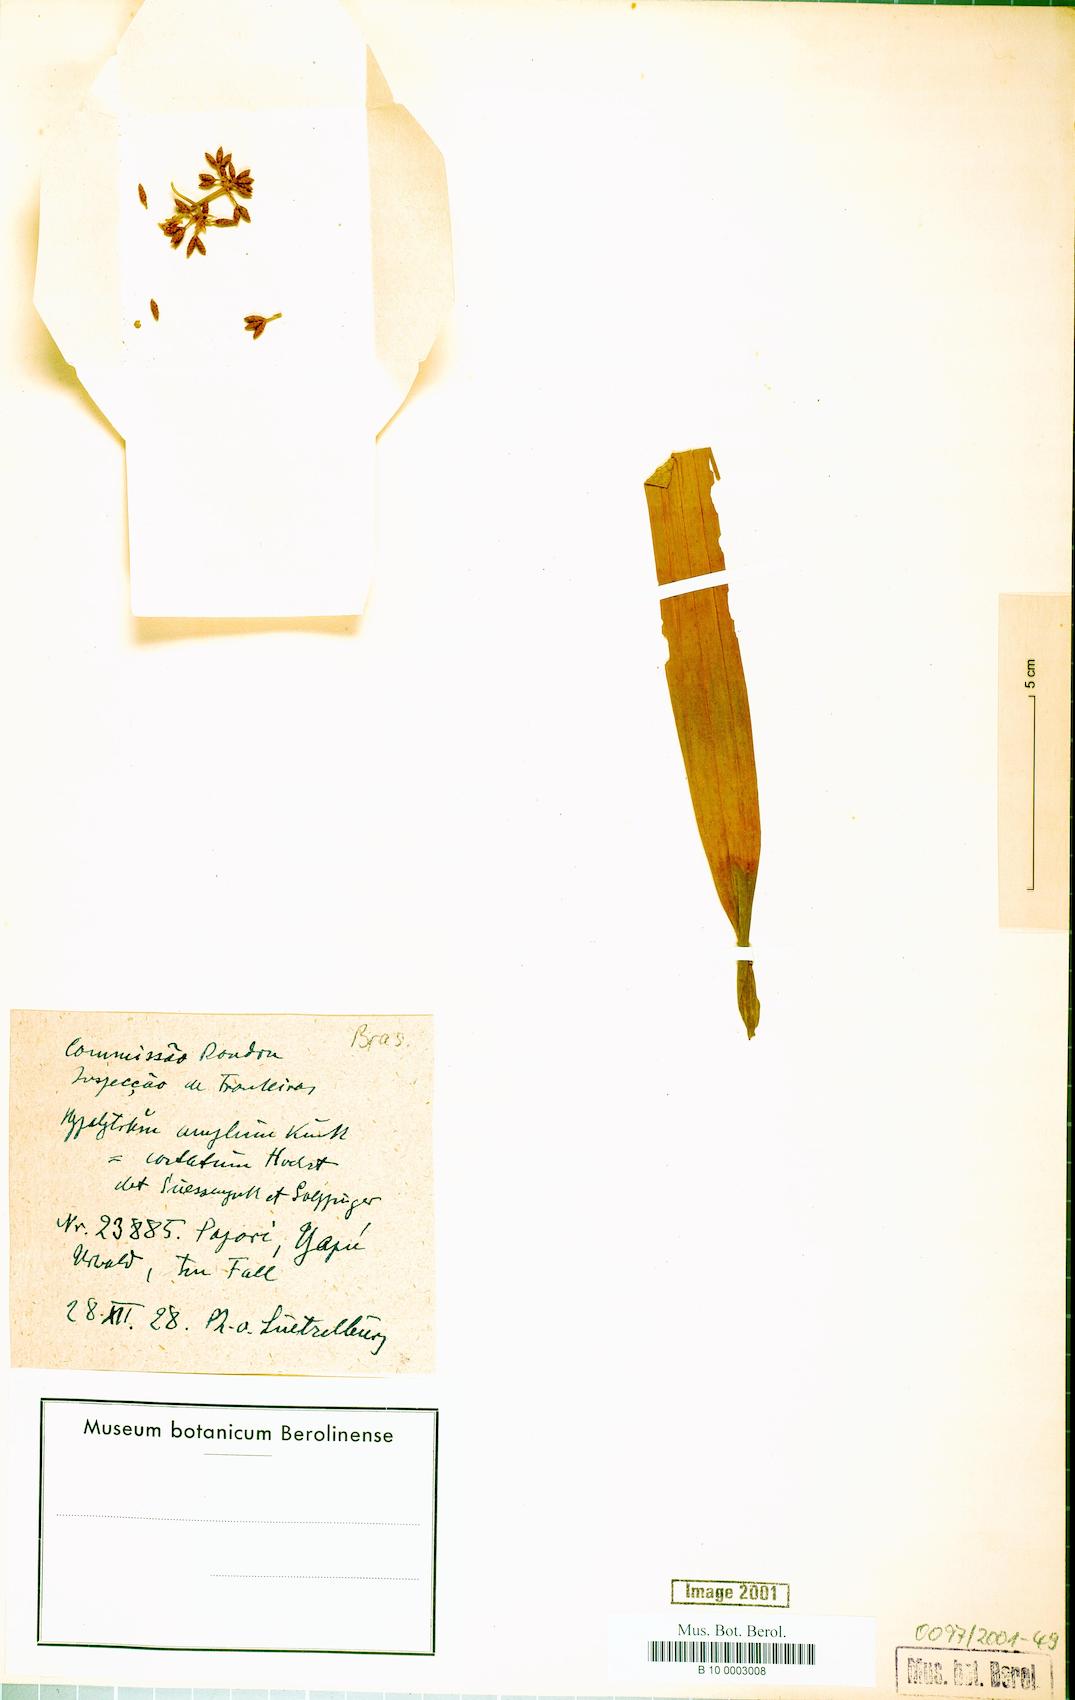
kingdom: Plantae
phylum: Tracheophyta
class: Liliopsida
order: Poales
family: Cyperaceae
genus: Hypolytrum
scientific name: Hypolytrum amplum
